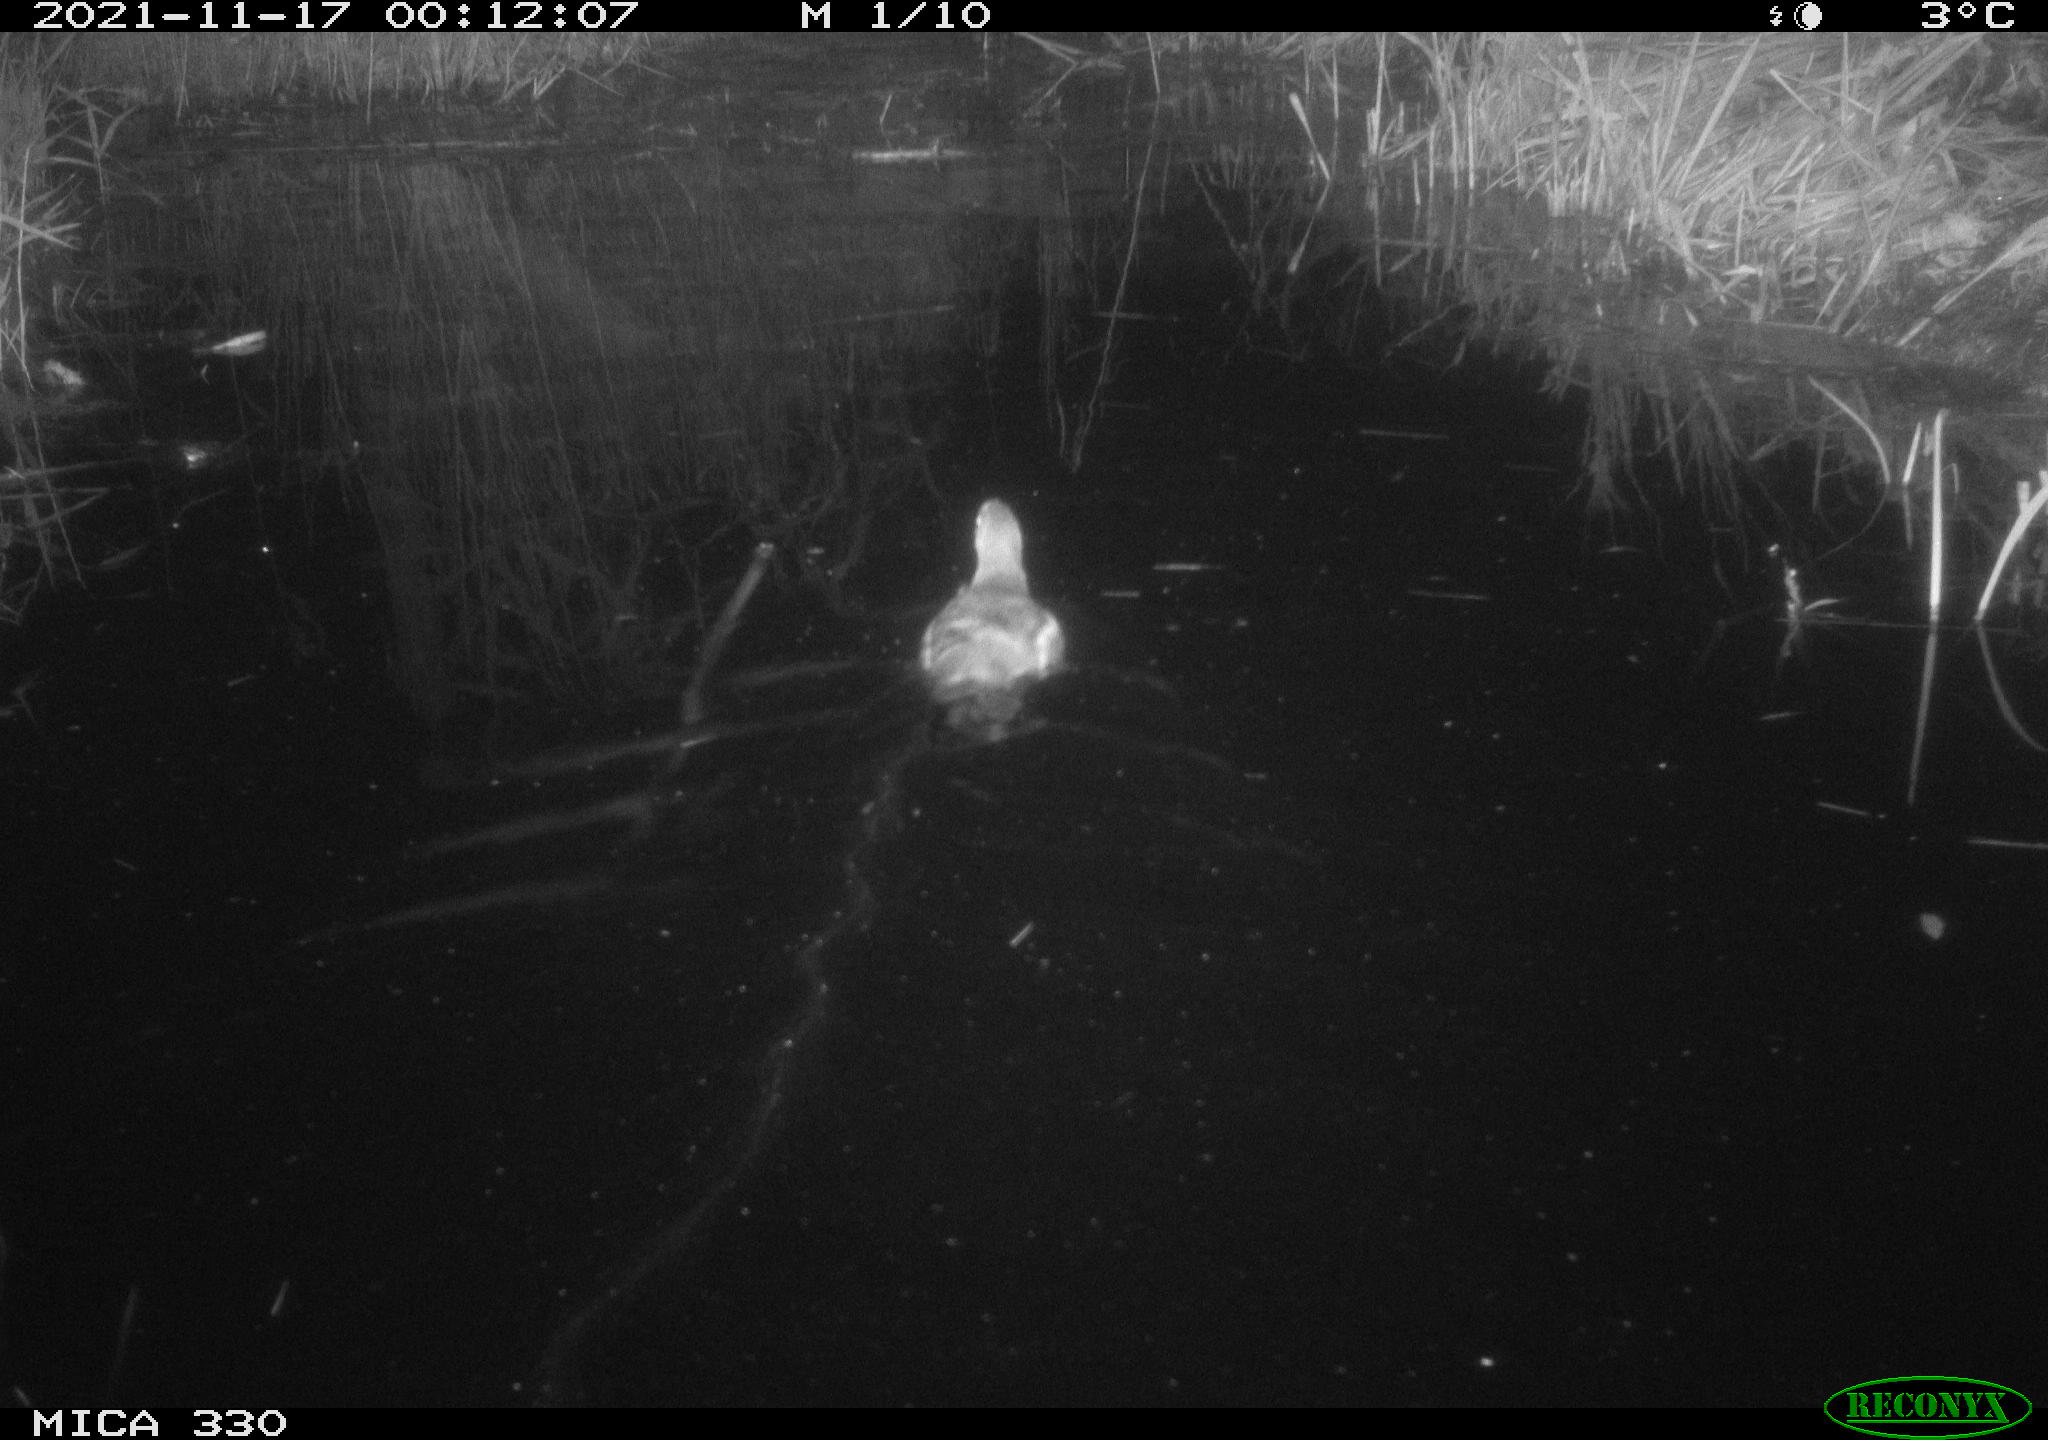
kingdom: Animalia
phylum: Chordata
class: Aves
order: Gruiformes
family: Rallidae
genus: Gallinula
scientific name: Gallinula chloropus
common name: Common moorhen
